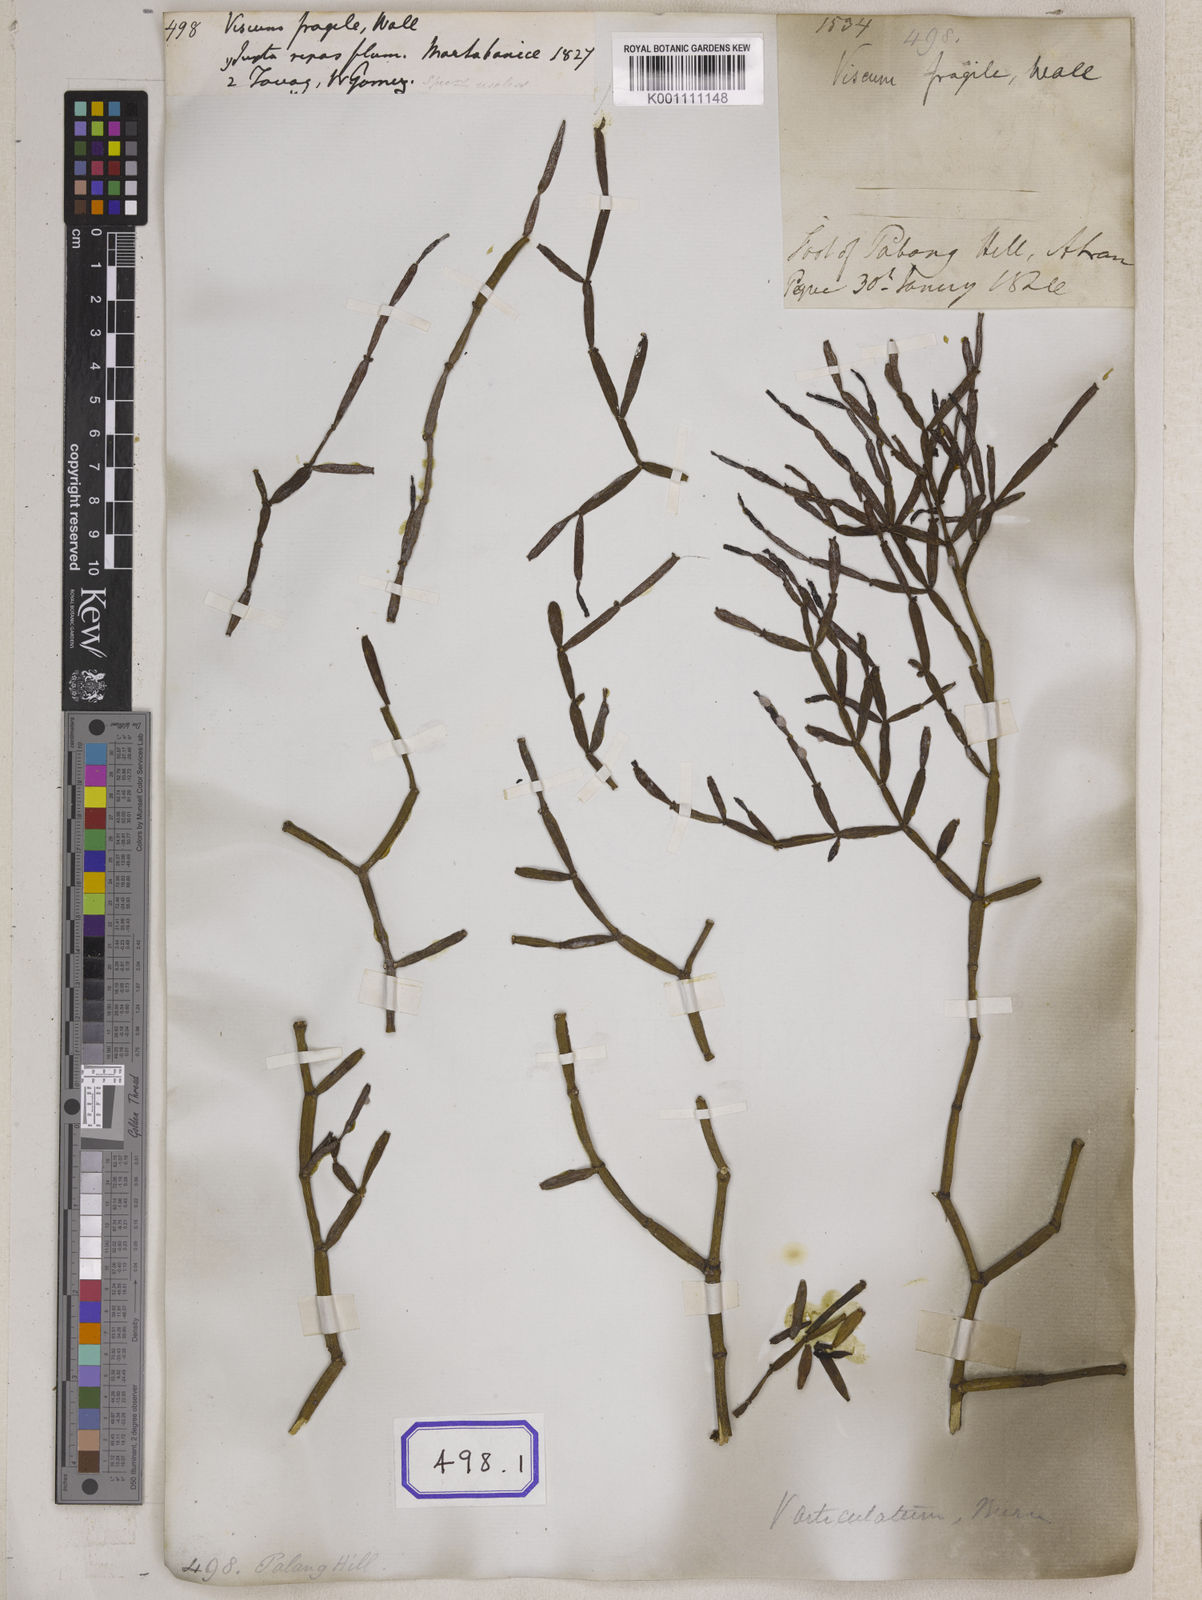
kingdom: Plantae
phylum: Tracheophyta
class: Magnoliopsida
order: Santalales
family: Viscaceae
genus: Viscum
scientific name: Viscum
